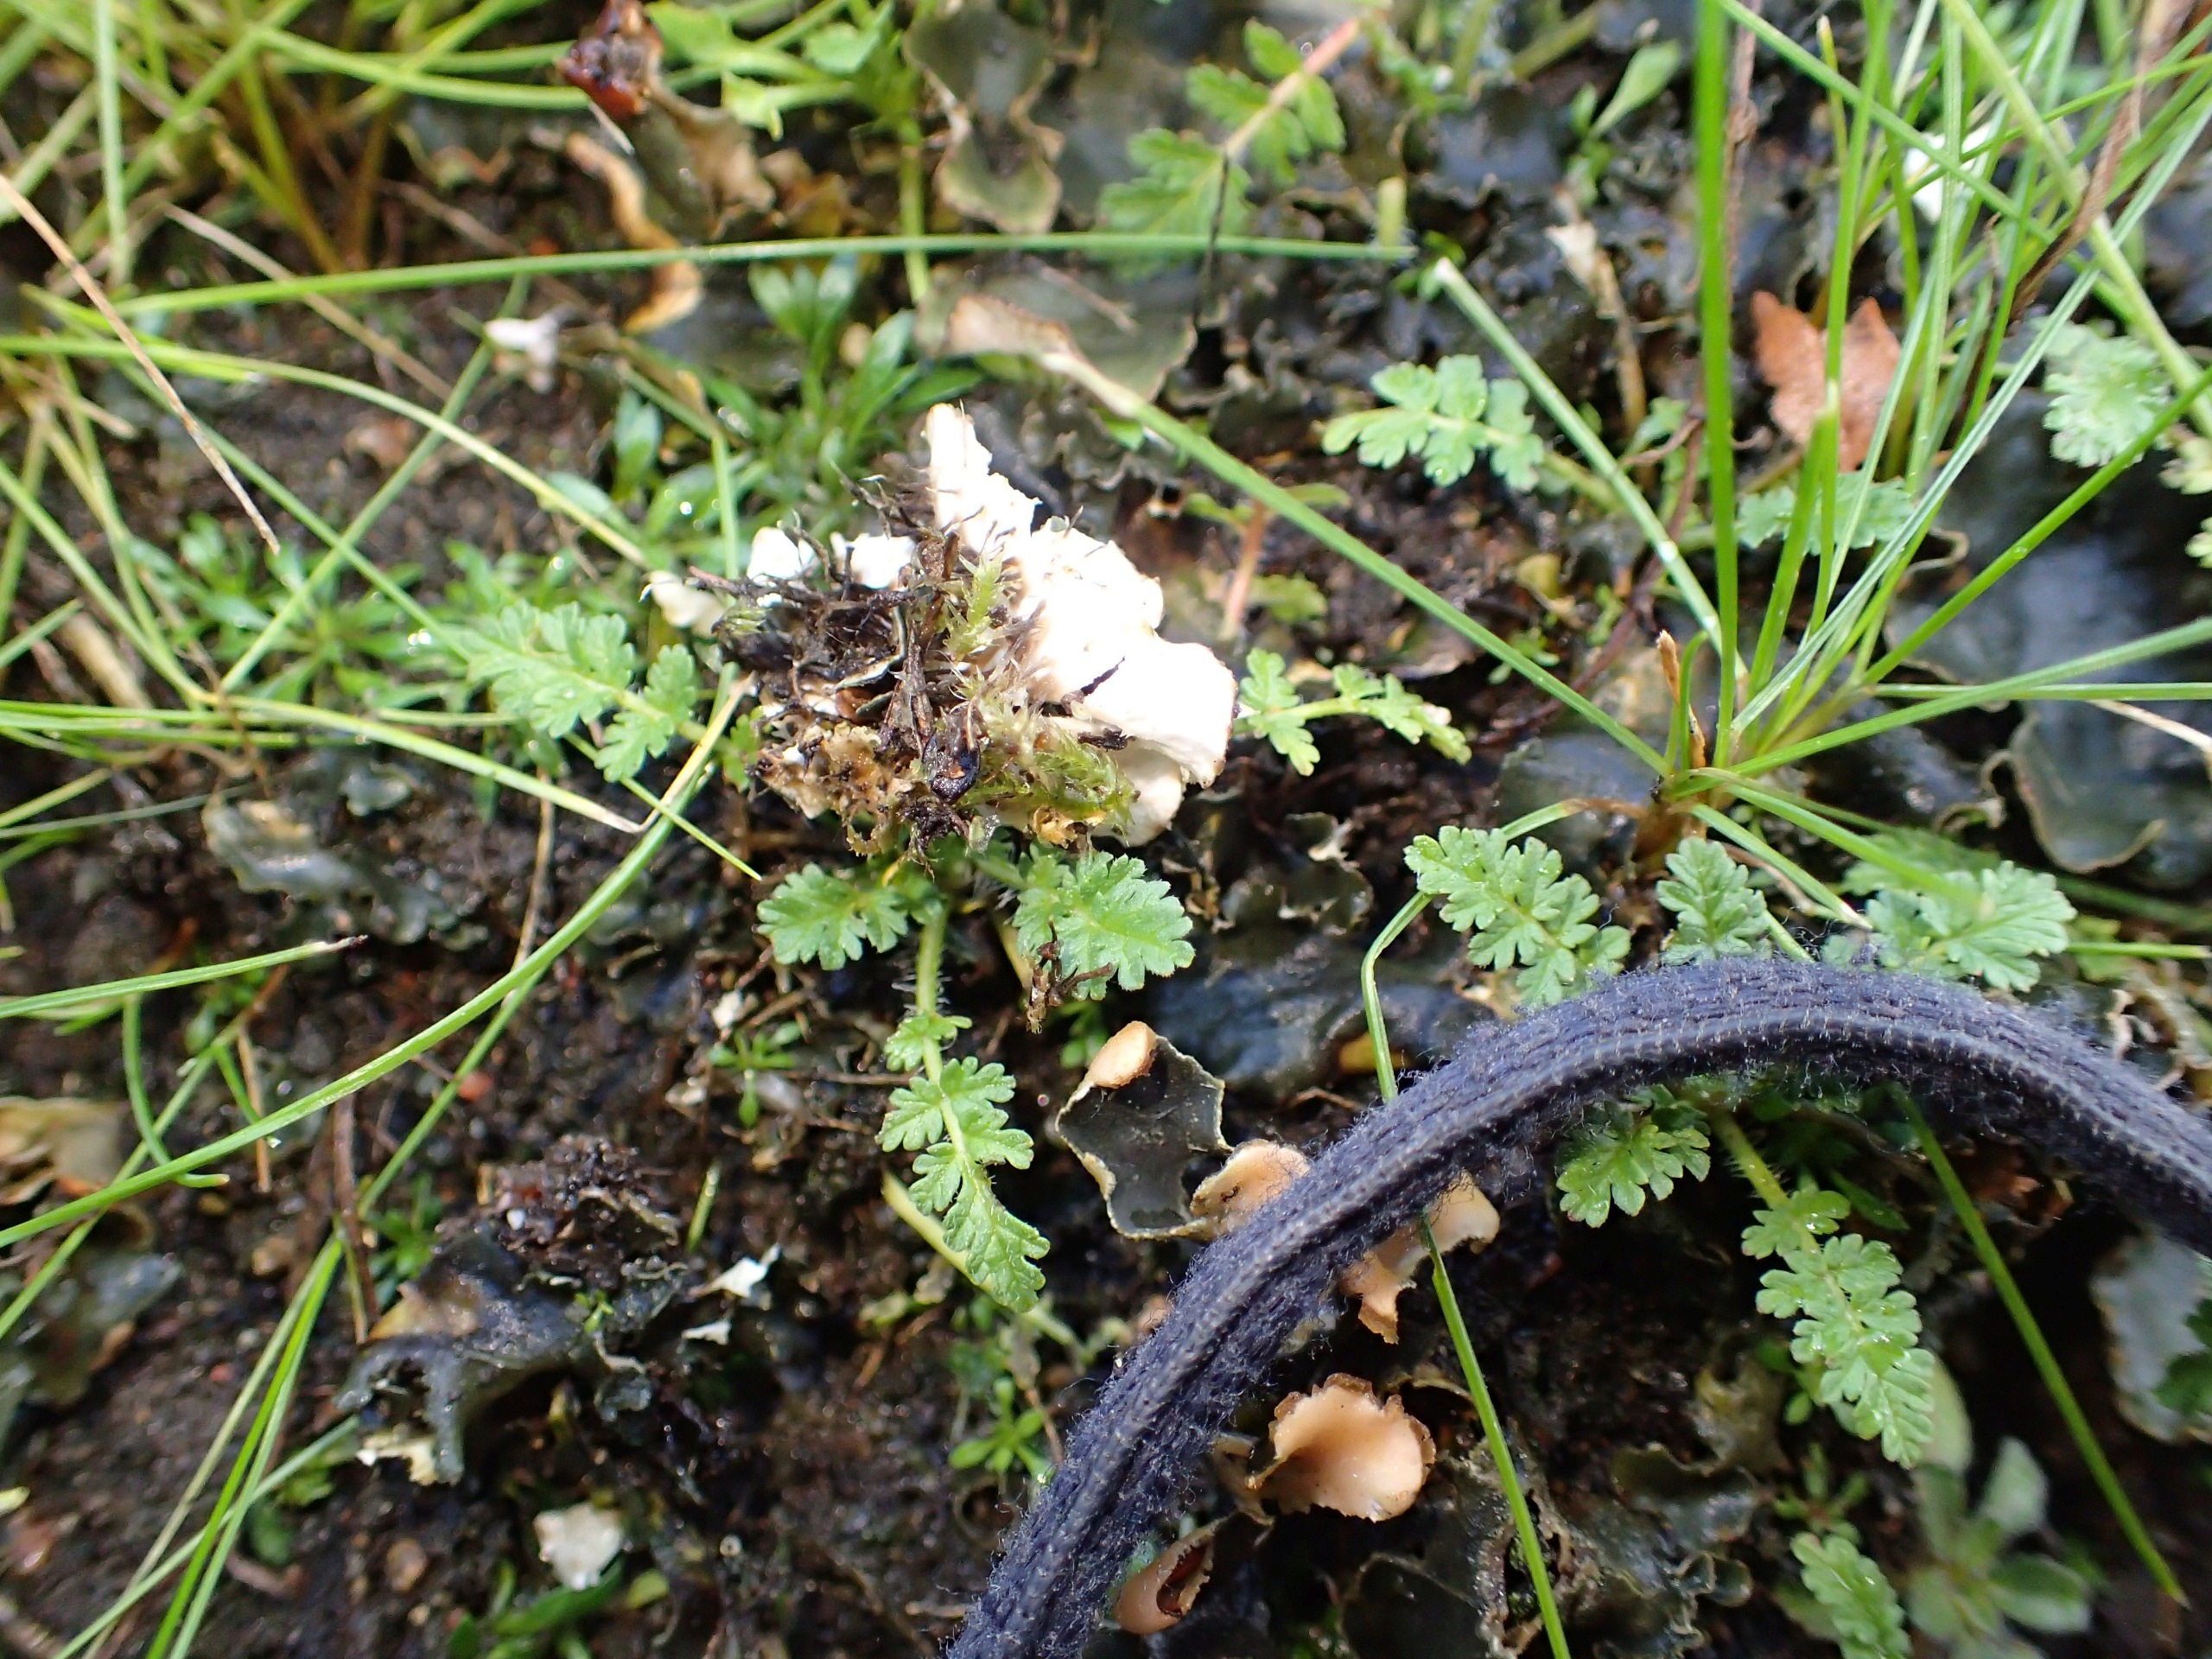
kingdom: Plantae
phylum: Tracheophyta
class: Magnoliopsida
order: Geraniales
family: Geraniaceae
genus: Erodium
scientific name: Erodium cicutarium
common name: Hejrenæb
